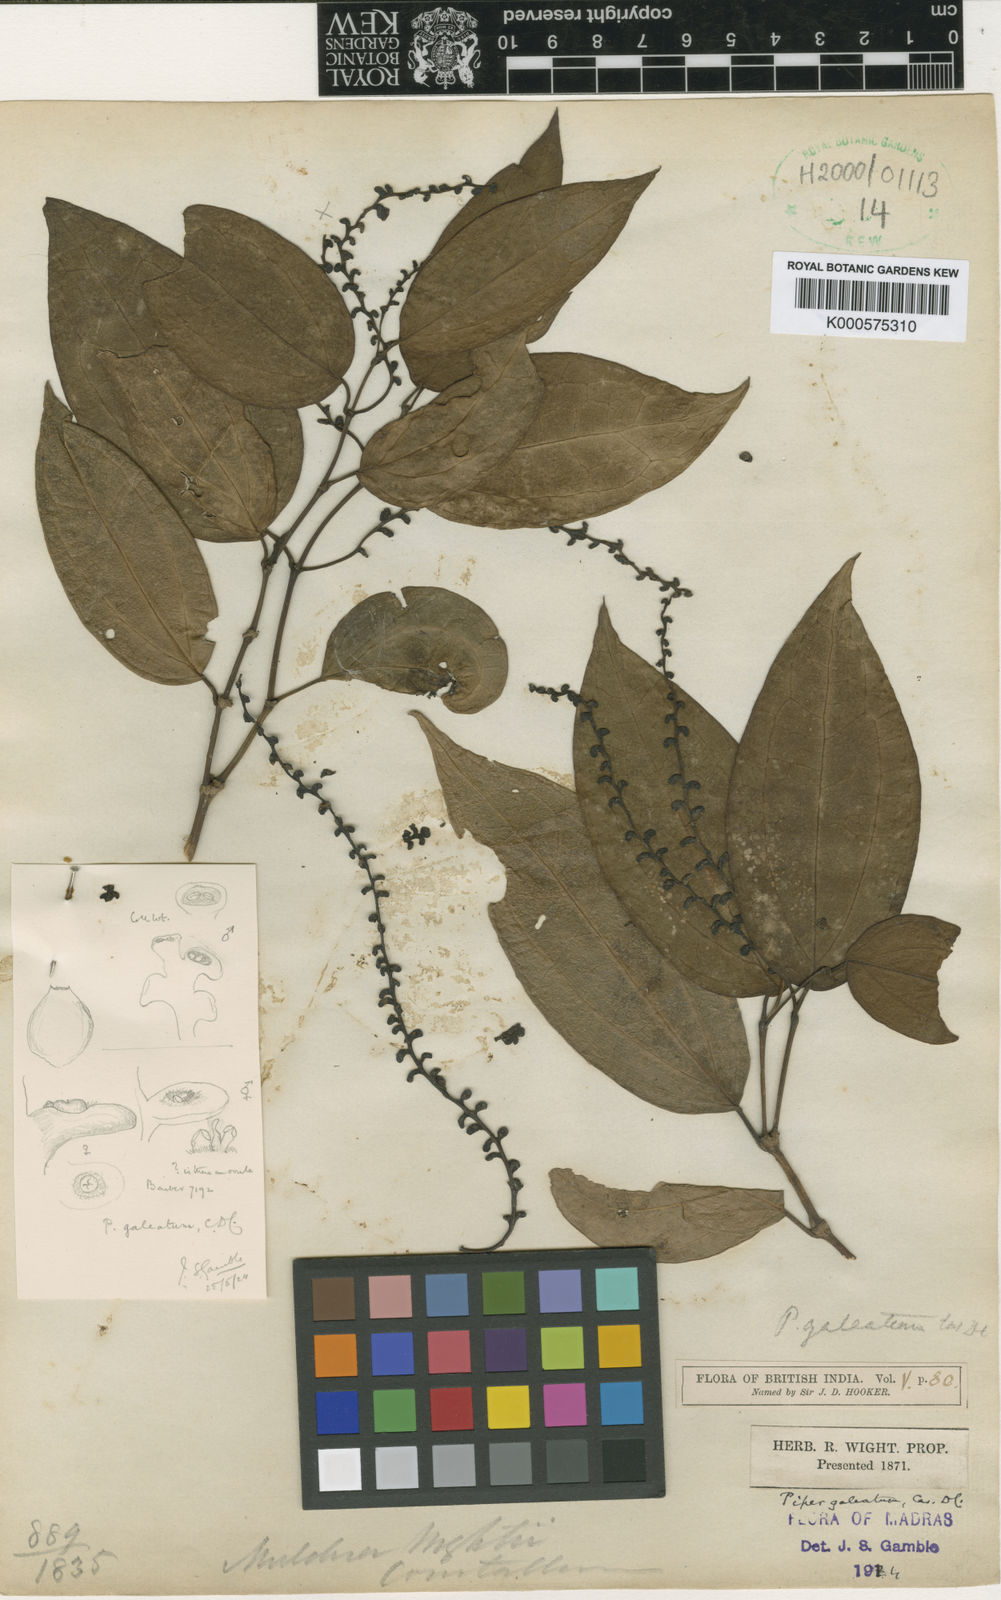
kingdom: Plantae
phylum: Tracheophyta
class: Magnoliopsida
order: Piperales
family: Piperaceae
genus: Piper
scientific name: Piper galeatum
